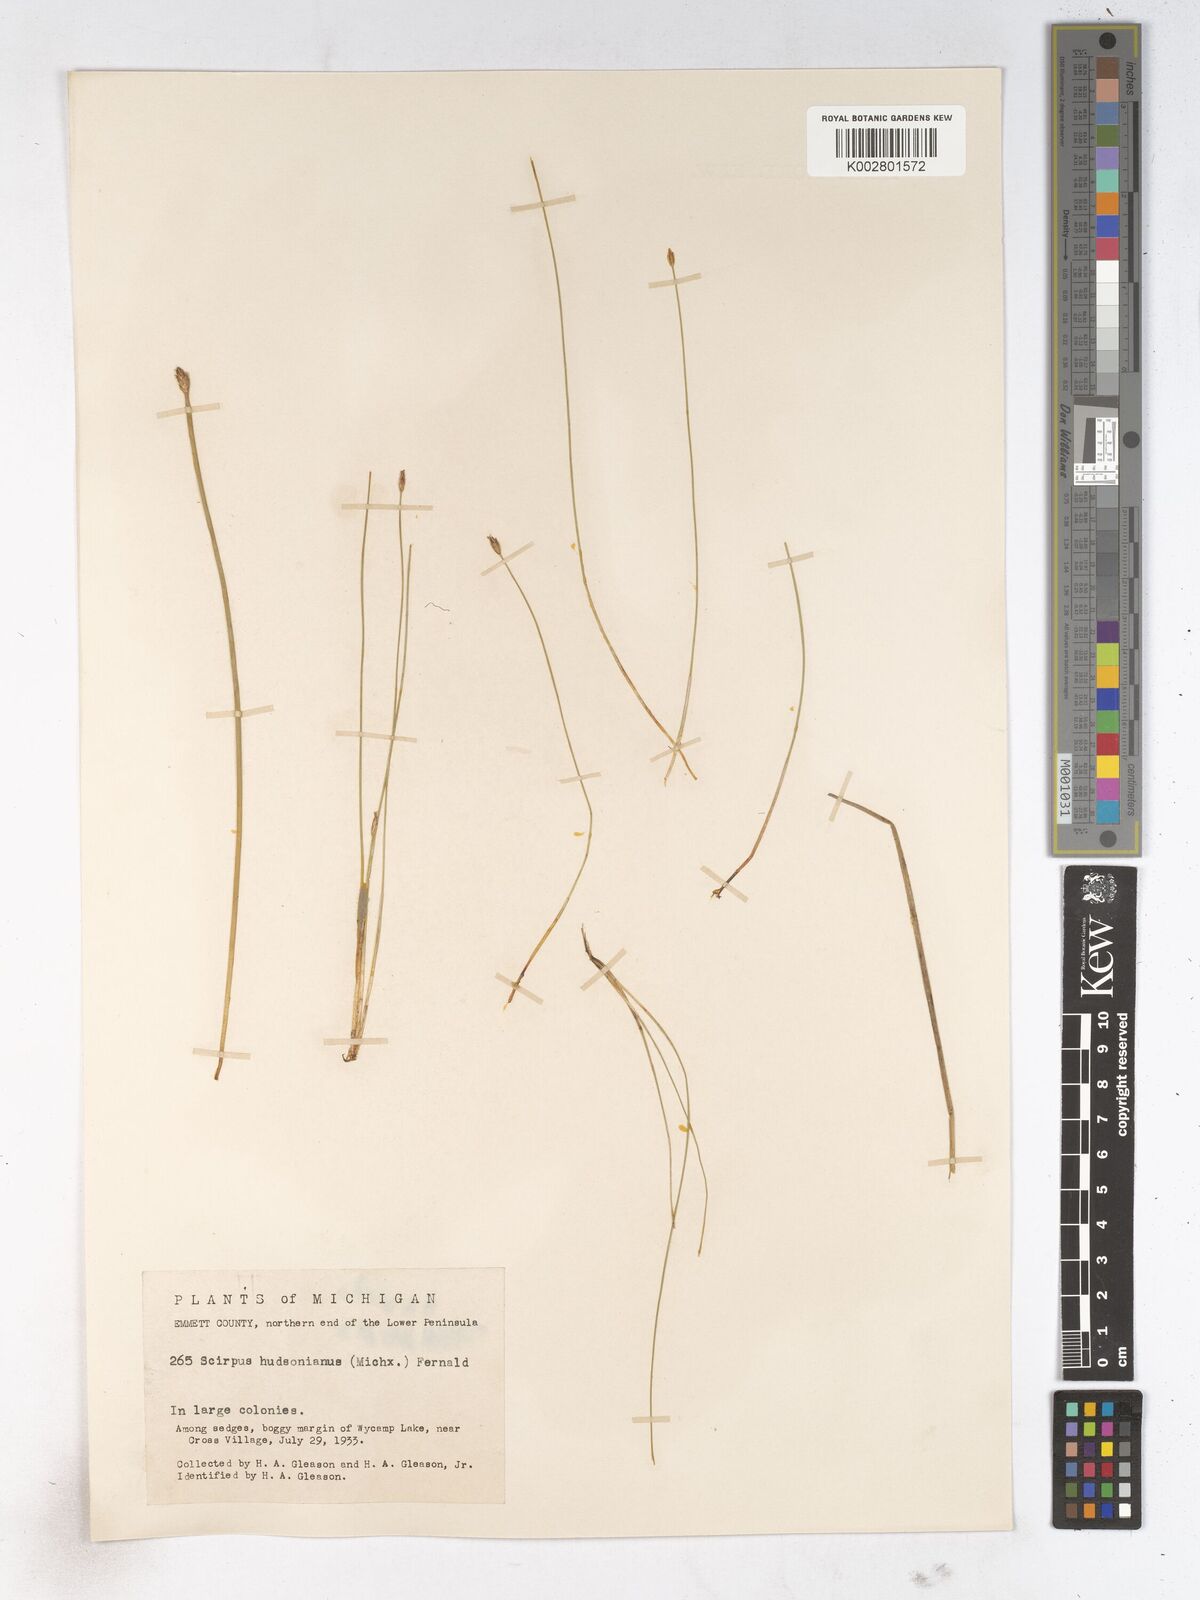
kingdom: Plantae
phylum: Tracheophyta
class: Liliopsida
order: Poales
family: Cyperaceae
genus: Trichophorum
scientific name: Trichophorum alpinum
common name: Alpine bulrush
